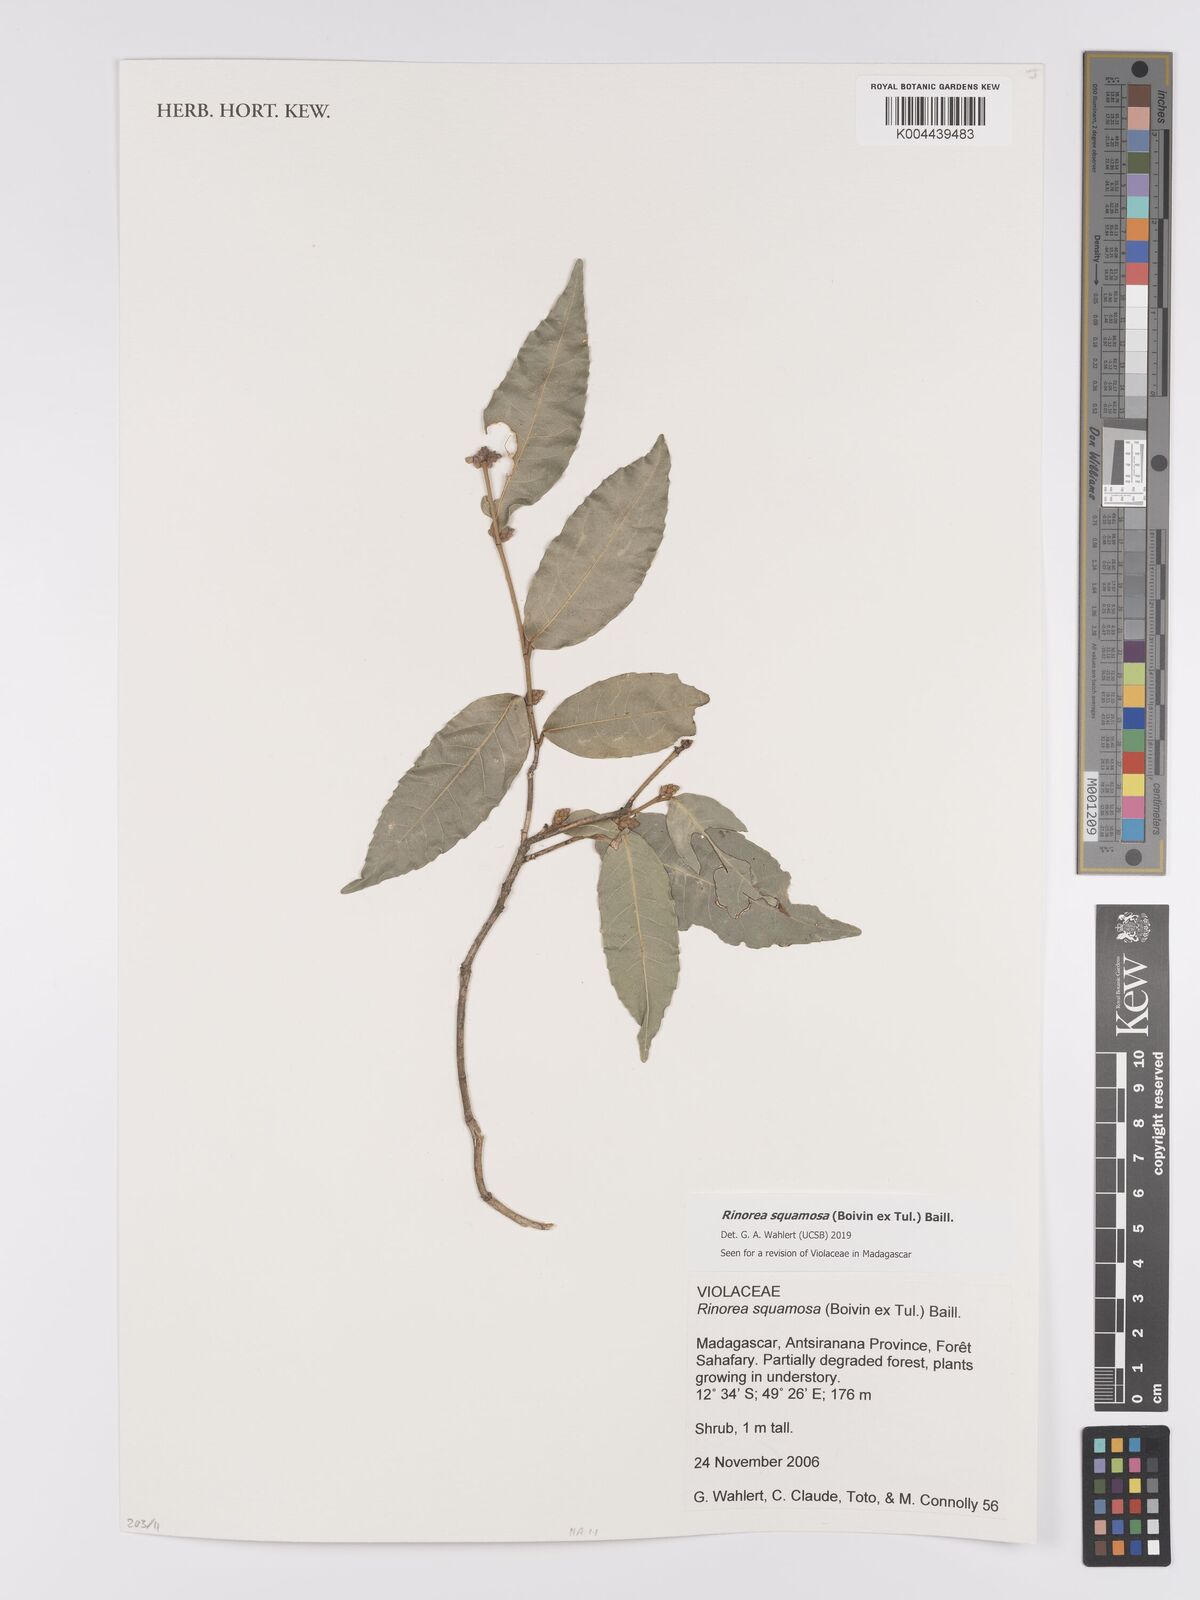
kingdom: Plantae
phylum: Tracheophyta
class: Magnoliopsida
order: Malpighiales
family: Violaceae
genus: Rinorea
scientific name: Rinorea squamosa
